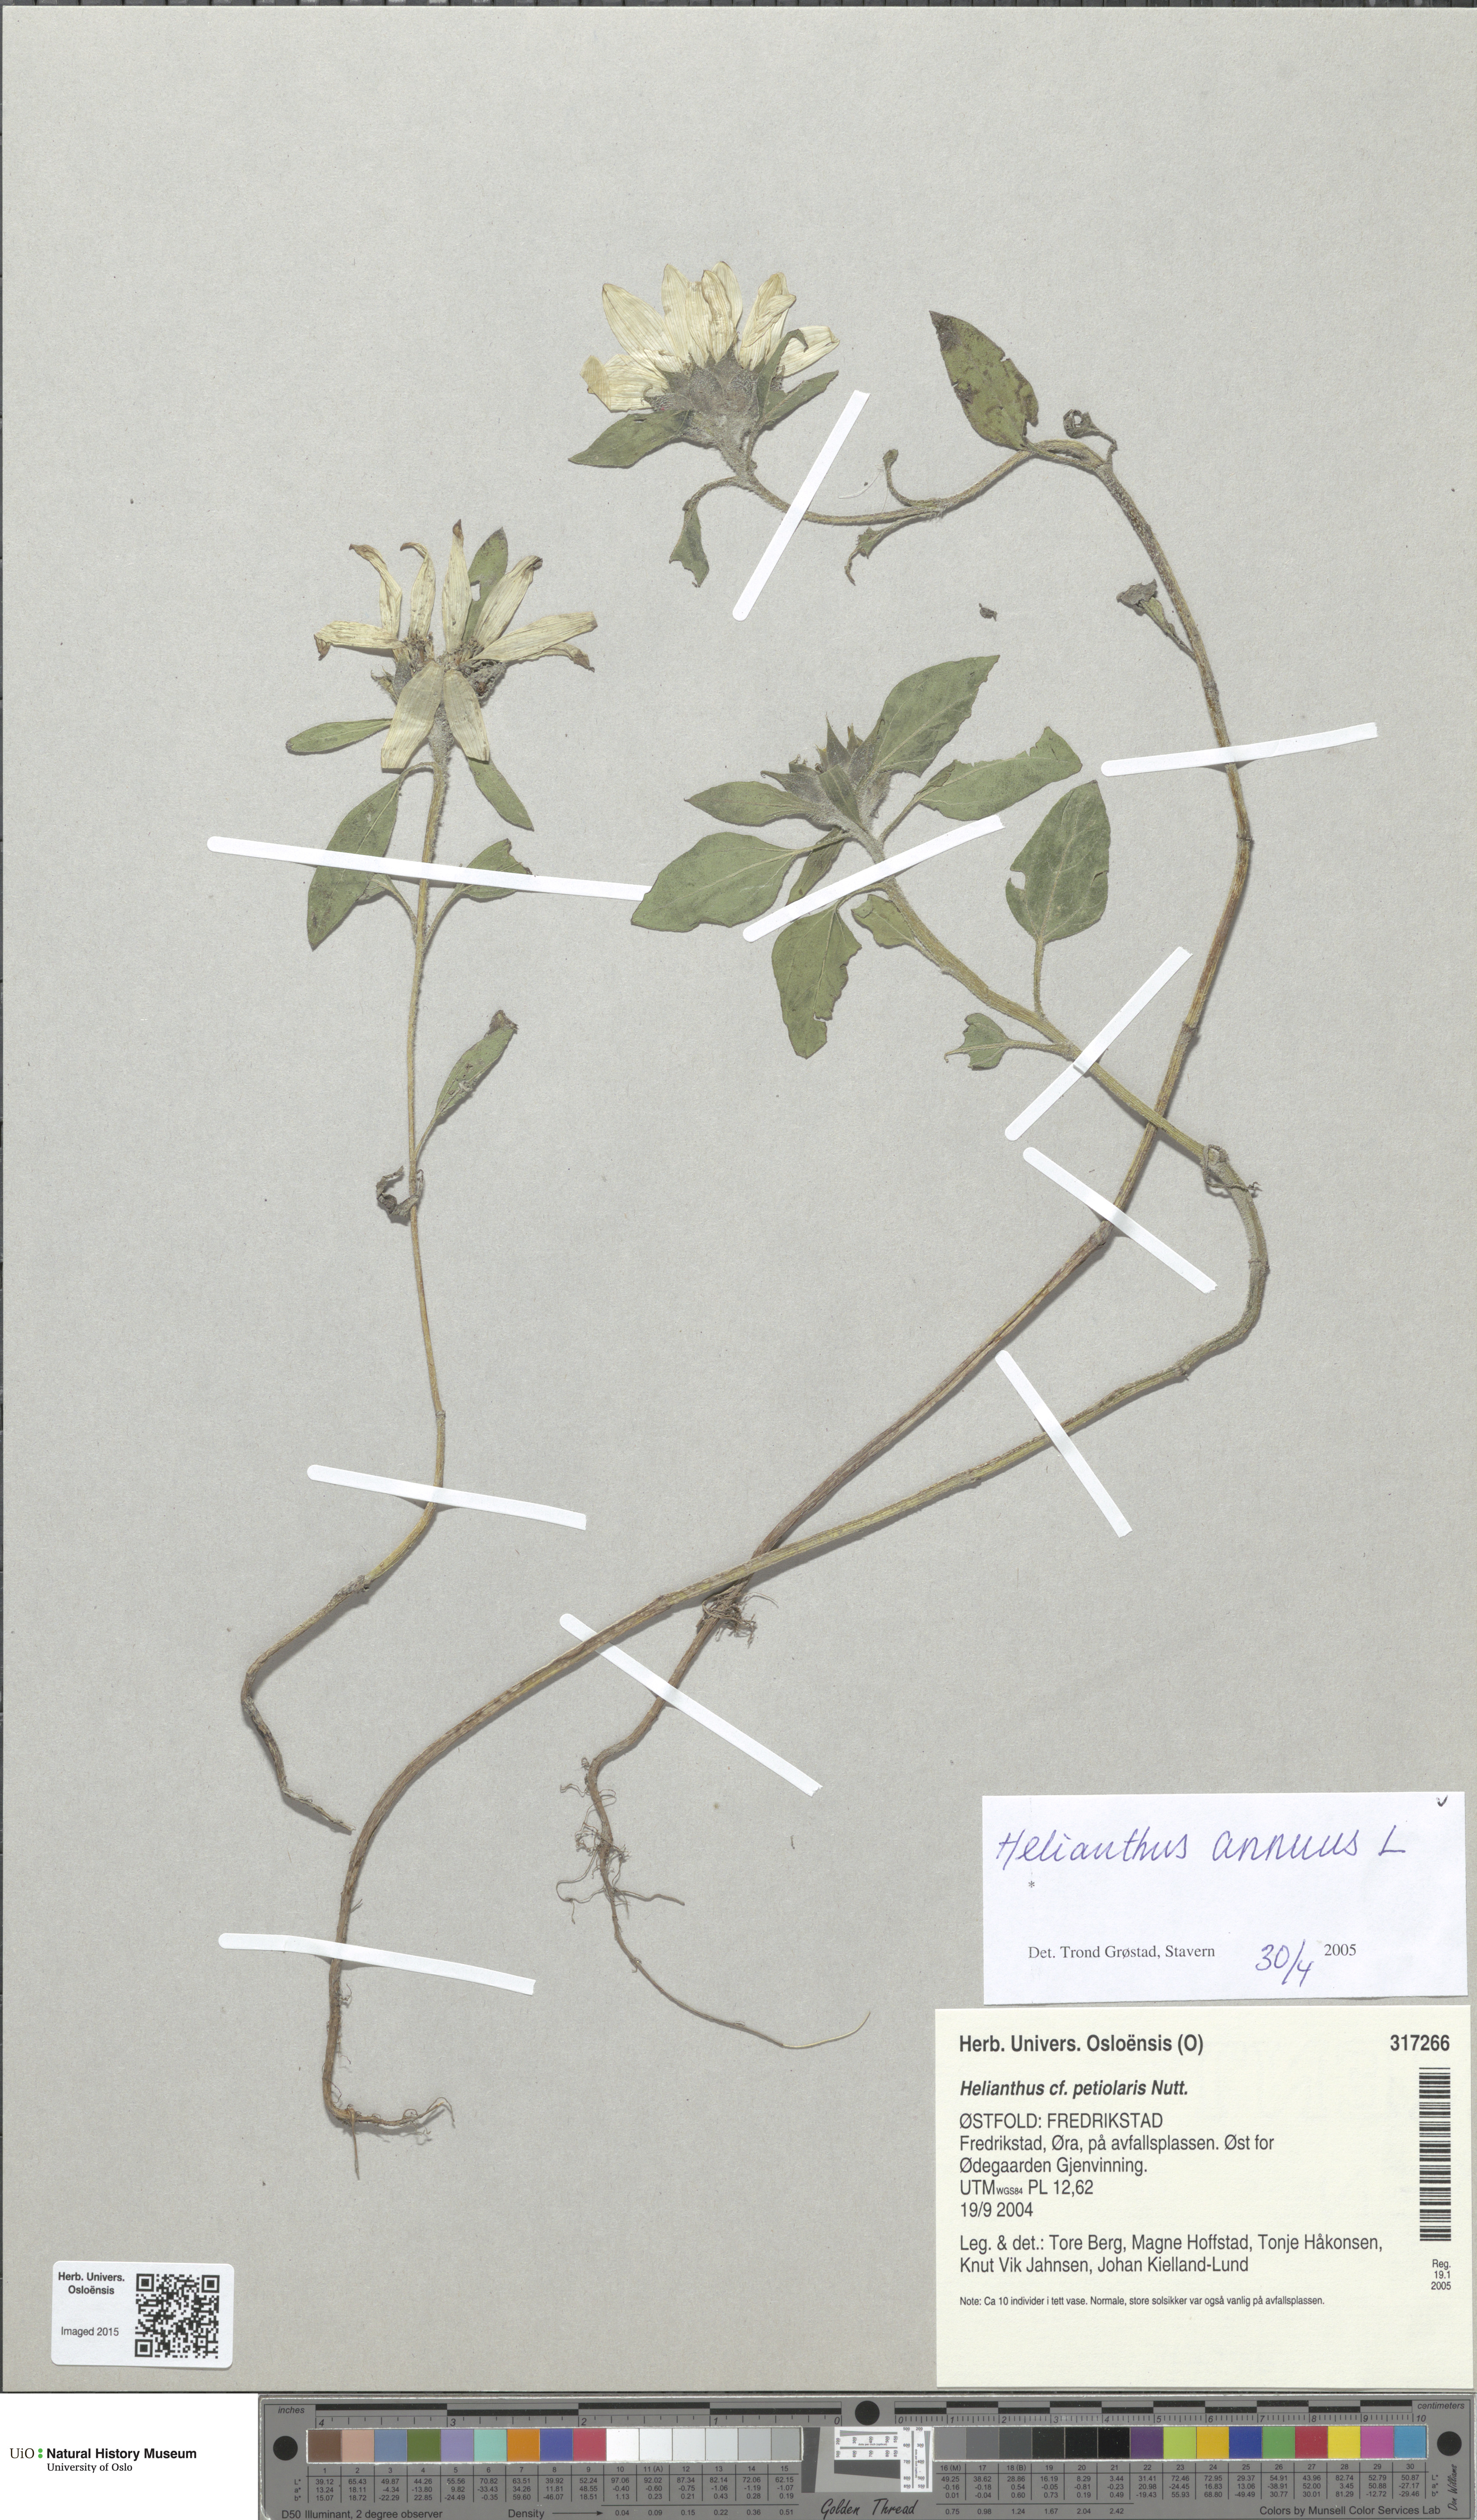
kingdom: Plantae
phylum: Tracheophyta
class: Magnoliopsida
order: Asterales
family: Asteraceae
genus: Helianthus
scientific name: Helianthus annuus
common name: Sunflower
